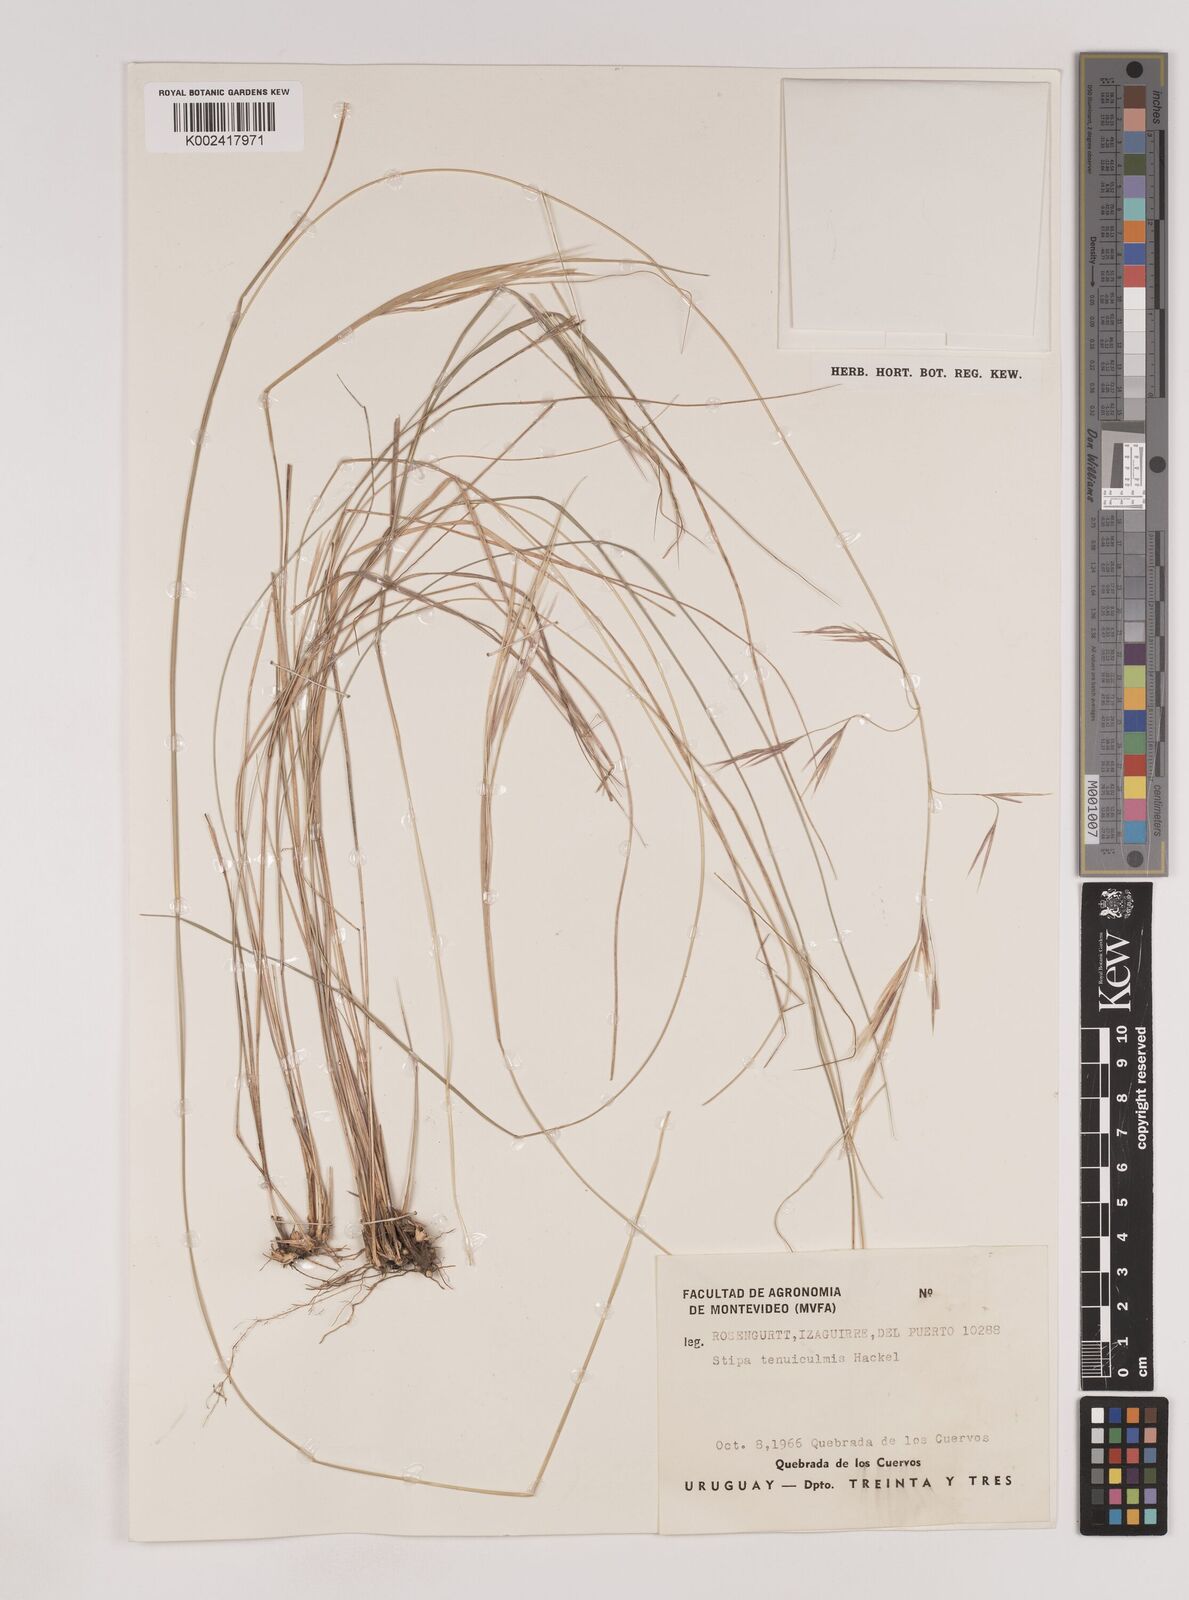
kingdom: Plantae
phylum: Tracheophyta
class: Liliopsida
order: Poales
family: Poaceae
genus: Nassella
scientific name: Nassella tenuiculmis
